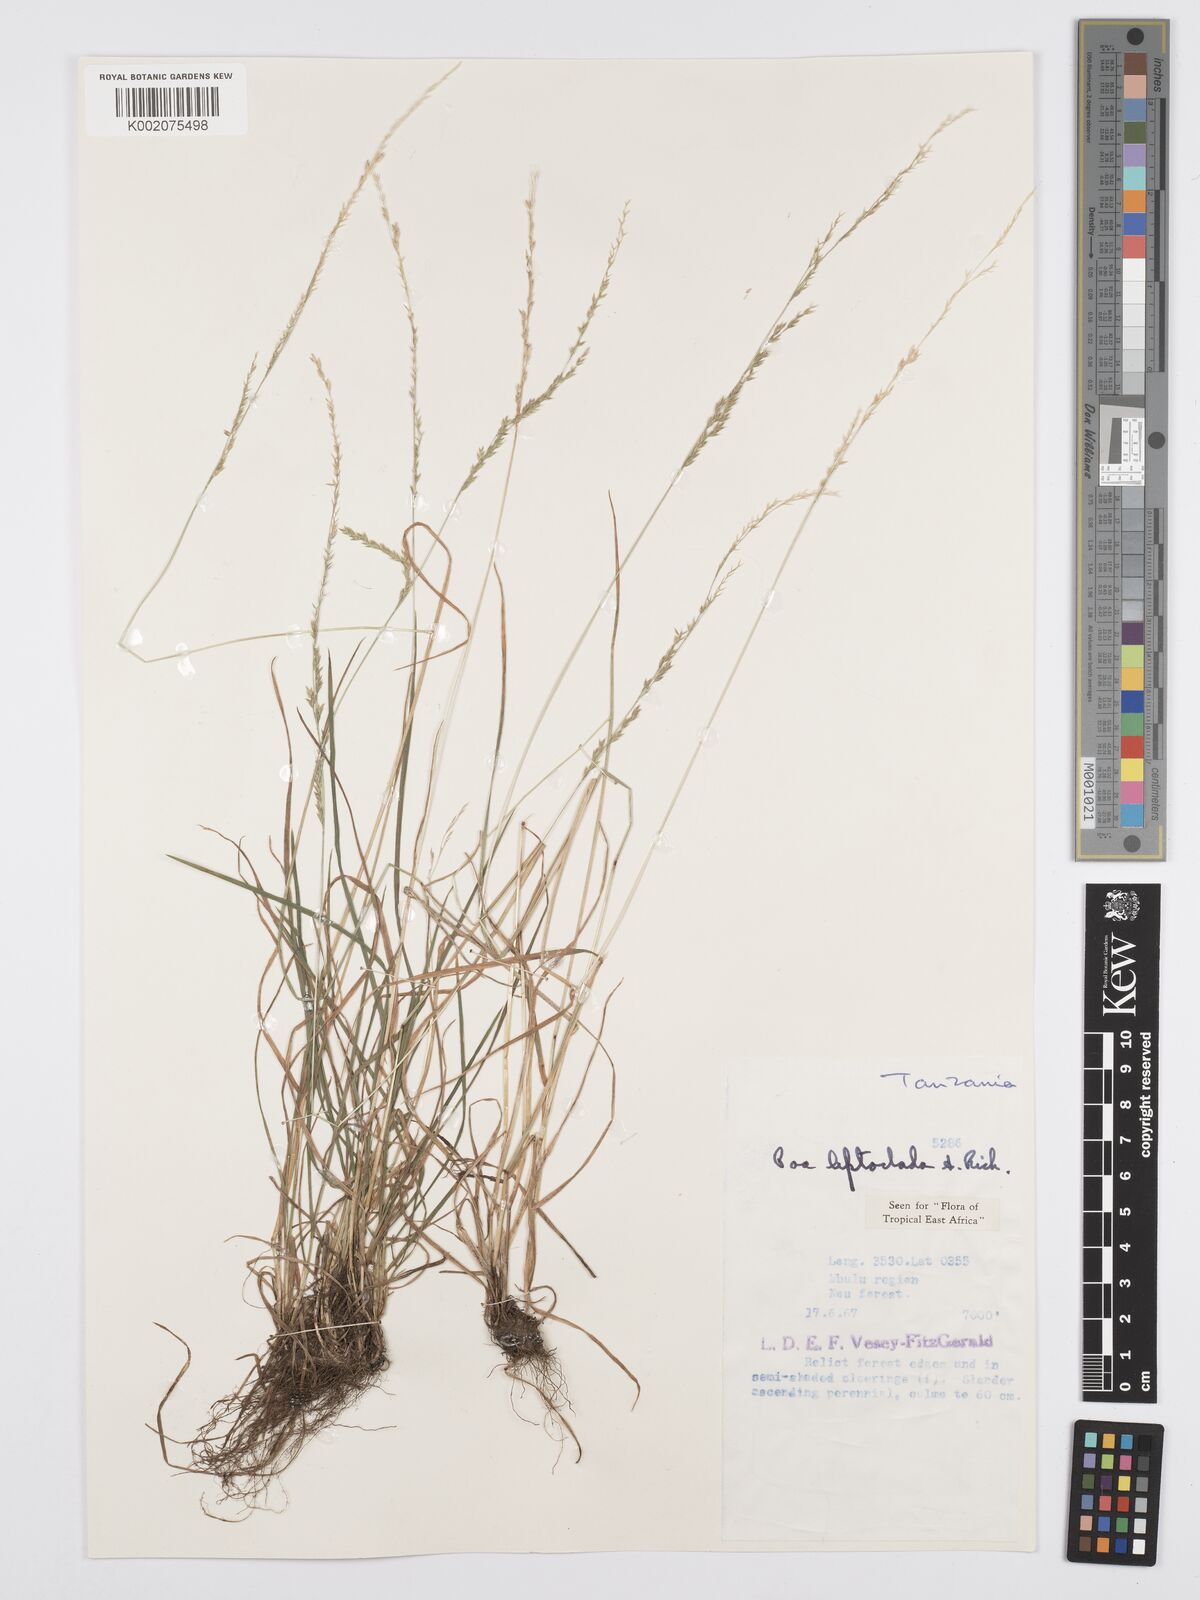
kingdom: Plantae
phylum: Tracheophyta
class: Liliopsida
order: Poales
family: Poaceae
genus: Poa
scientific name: Poa leptoclada
